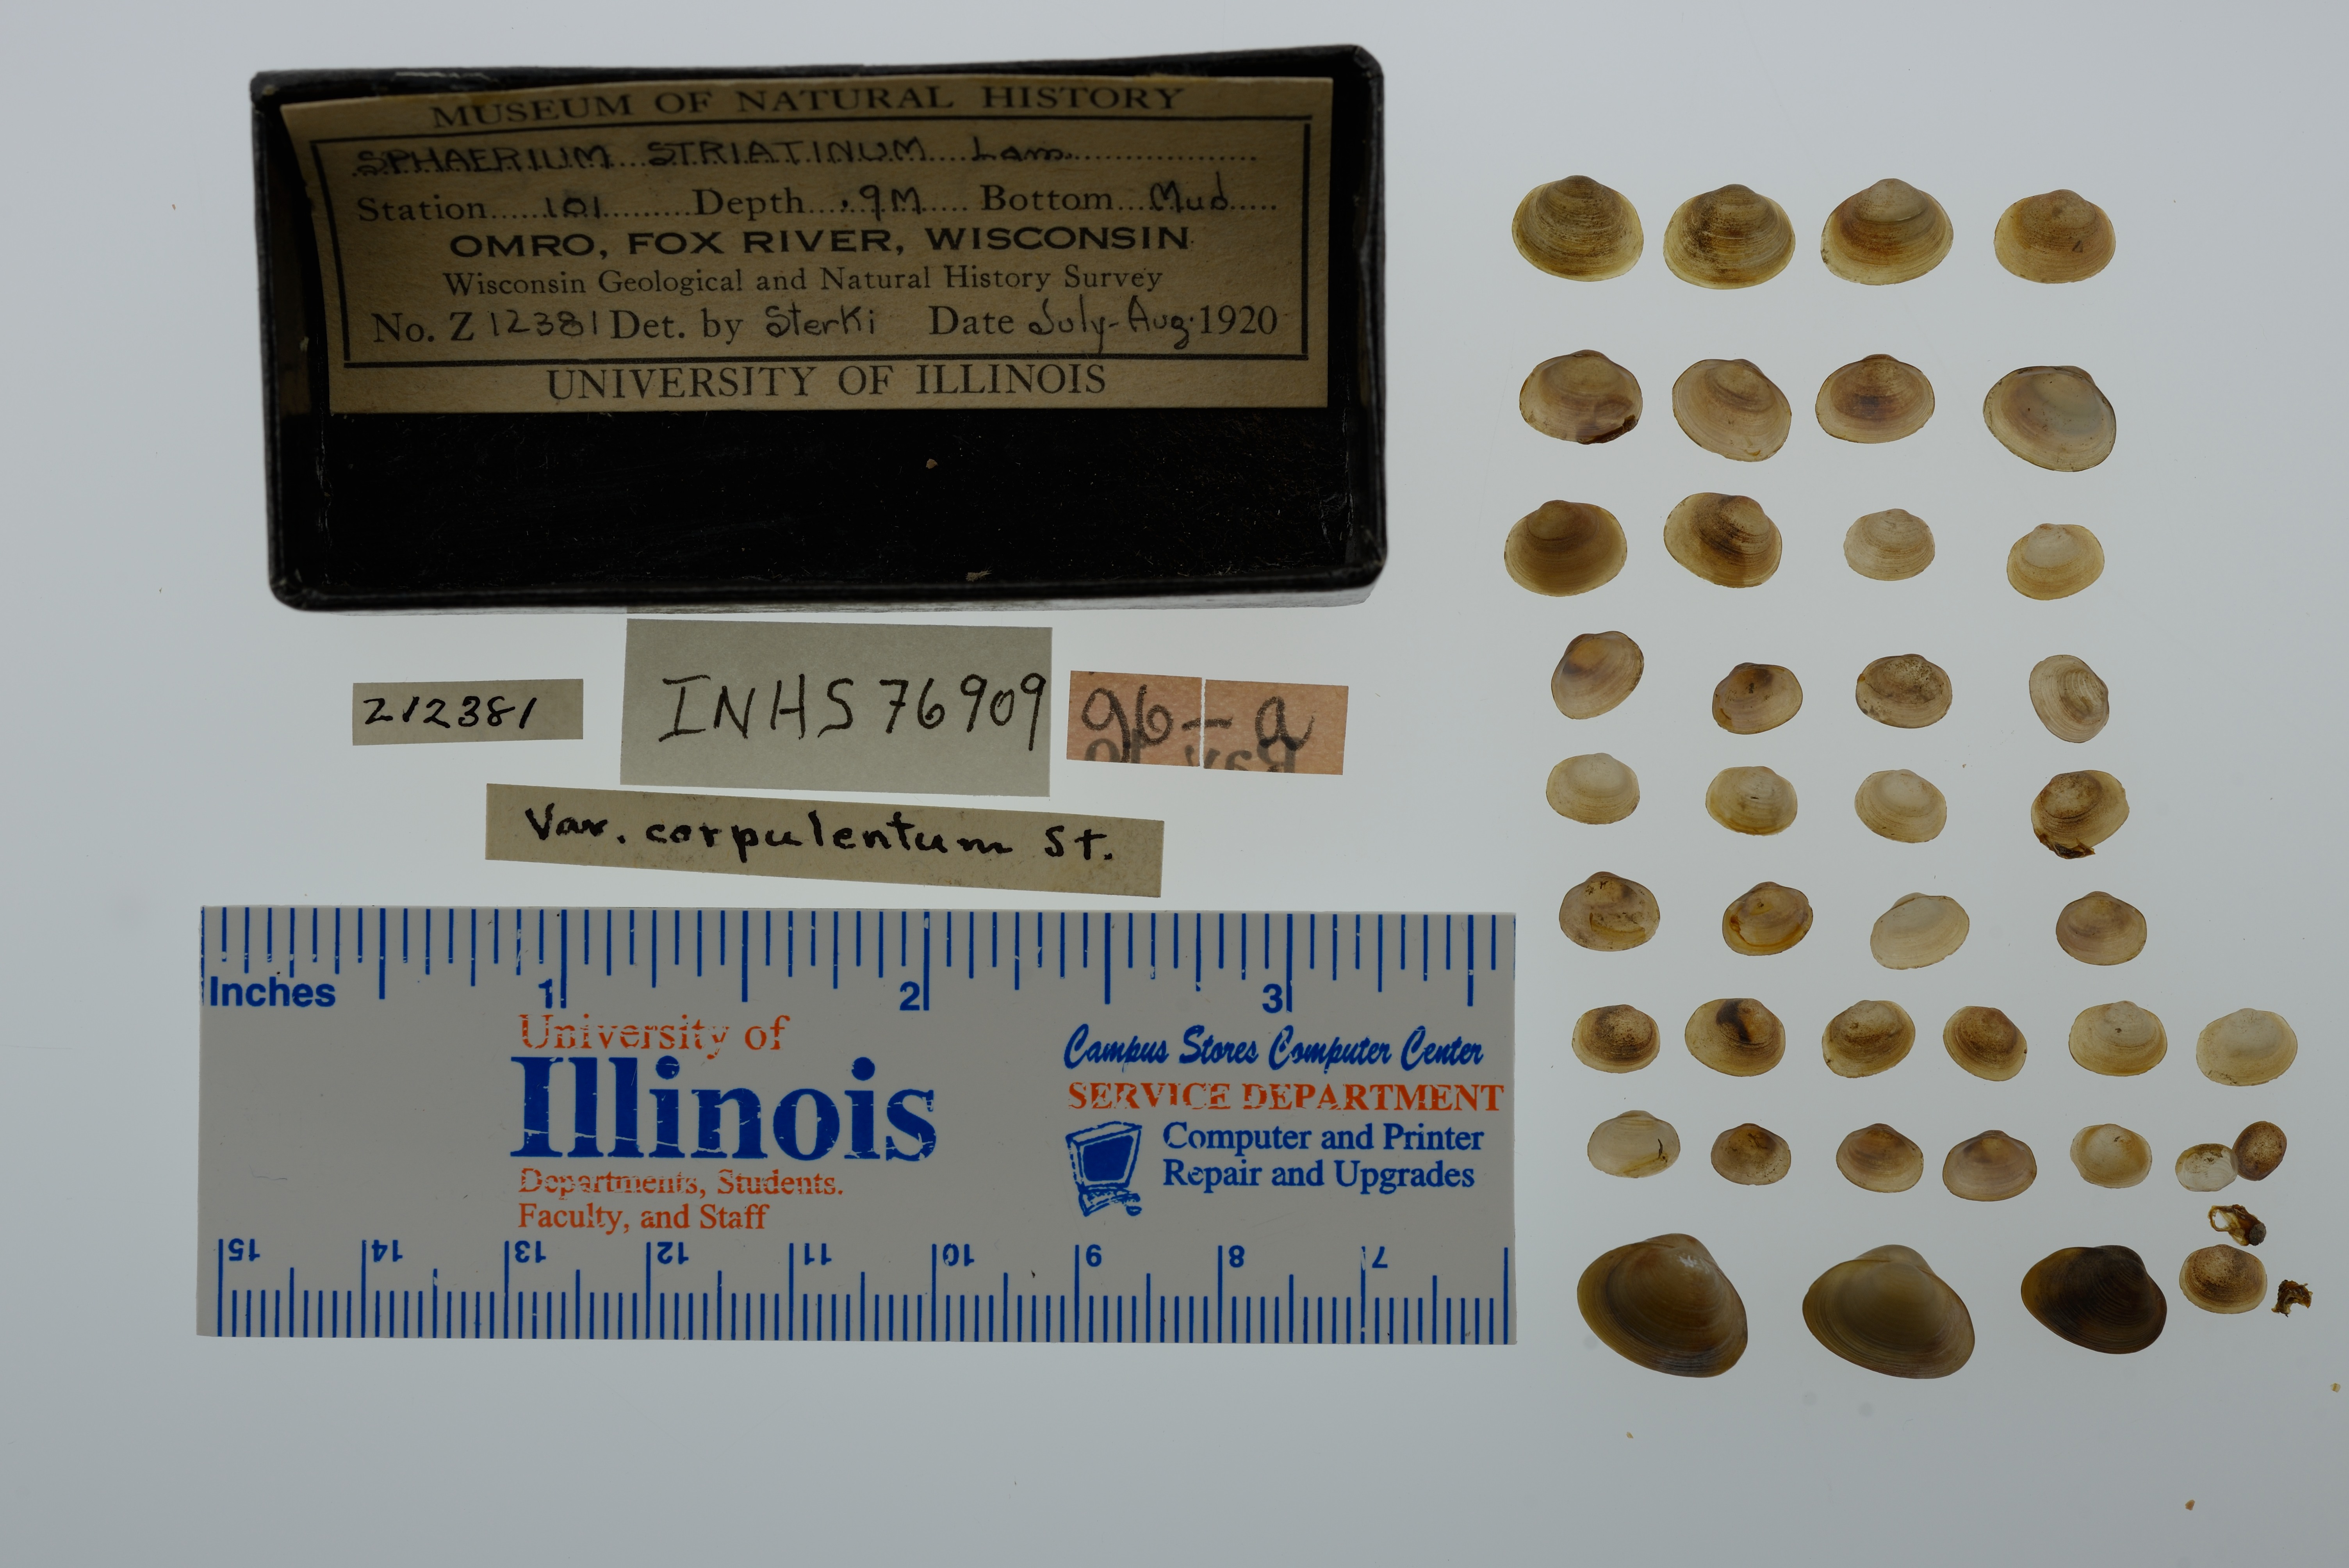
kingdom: Animalia
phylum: Mollusca
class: Bivalvia
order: Sphaeriida
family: Sphaeriidae
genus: Sphaerium
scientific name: Sphaerium striatinum
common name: Striated fingernailclam
